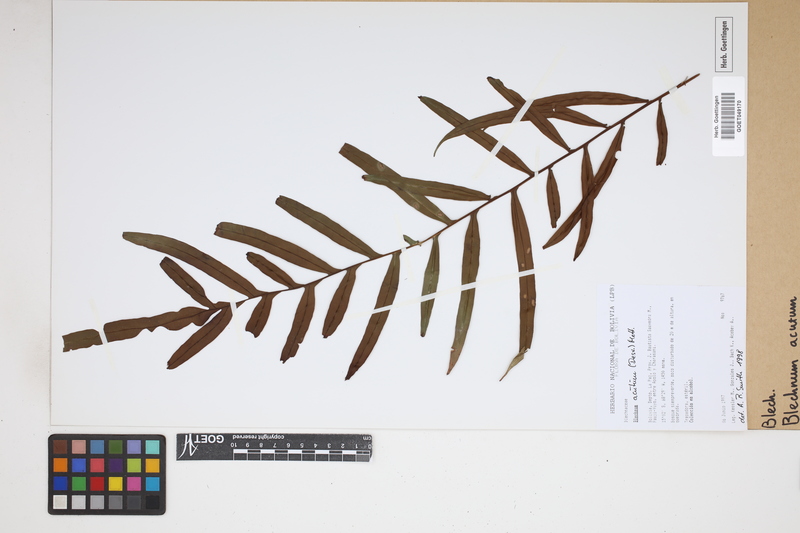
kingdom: Plantae
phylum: Tracheophyta
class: Polypodiopsida
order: Polypodiales
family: Blechnaceae
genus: Lomaridium
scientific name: Lomaridium acutum
